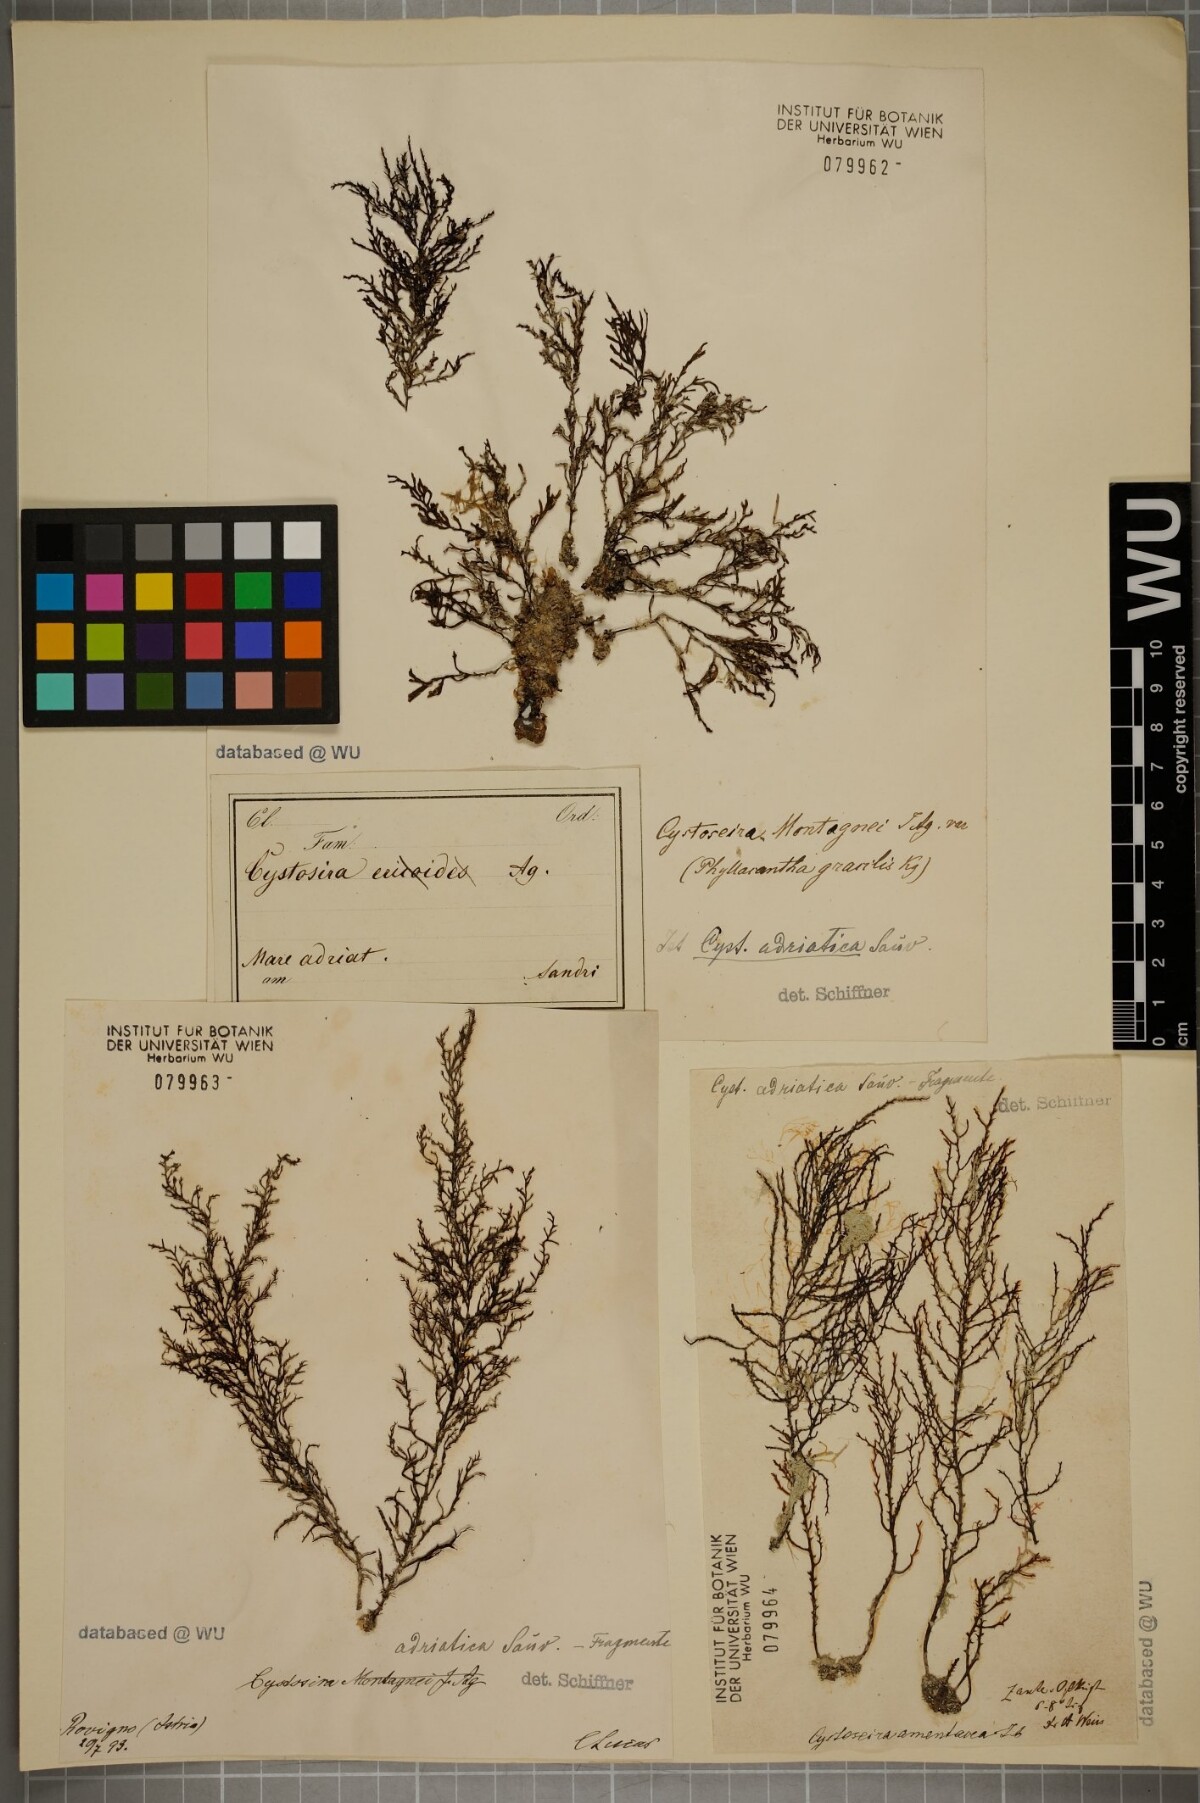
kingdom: Chromista
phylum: Ochrophyta
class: Phaeophyceae
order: Fucales
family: Sargassaceae
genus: Cystoseira
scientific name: Cystoseira Gongolaria montagnei
